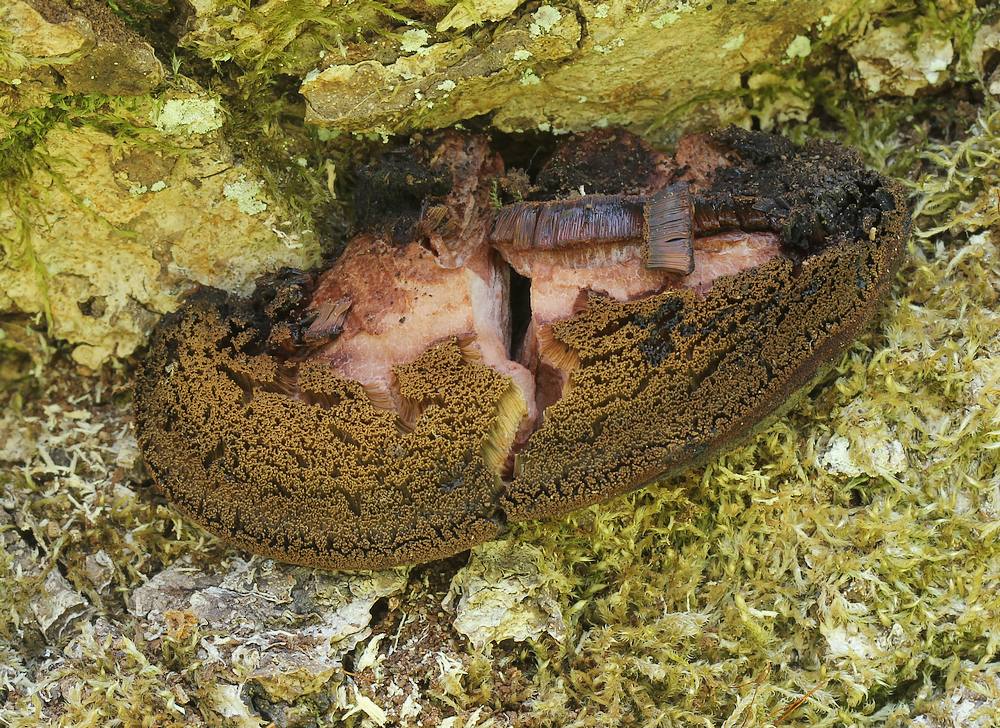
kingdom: Fungi
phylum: Basidiomycota
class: Agaricomycetes
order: Agaricales
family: Fistulinaceae
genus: Fistulina
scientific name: Fistulina hepatica
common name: oksetunge
